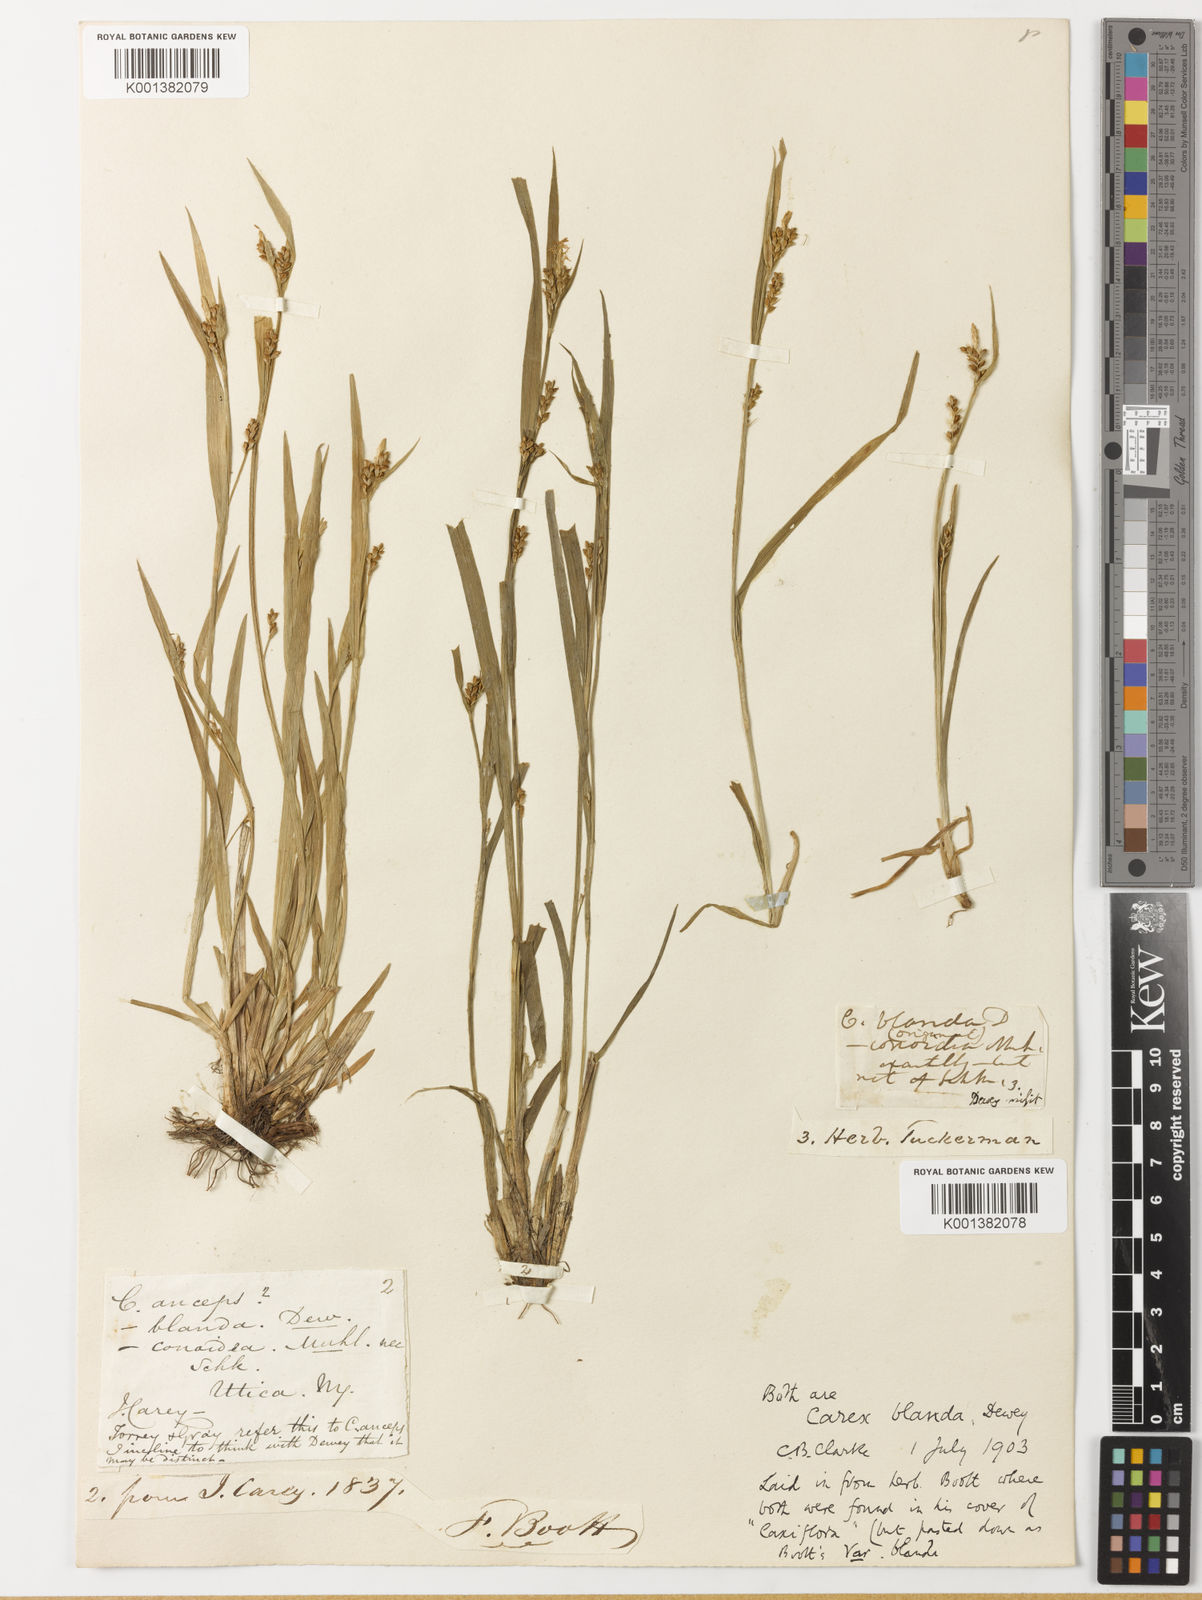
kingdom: Plantae
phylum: Tracheophyta
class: Liliopsida
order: Poales
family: Cyperaceae
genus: Carex
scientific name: Carex blanda
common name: Bland sedge
